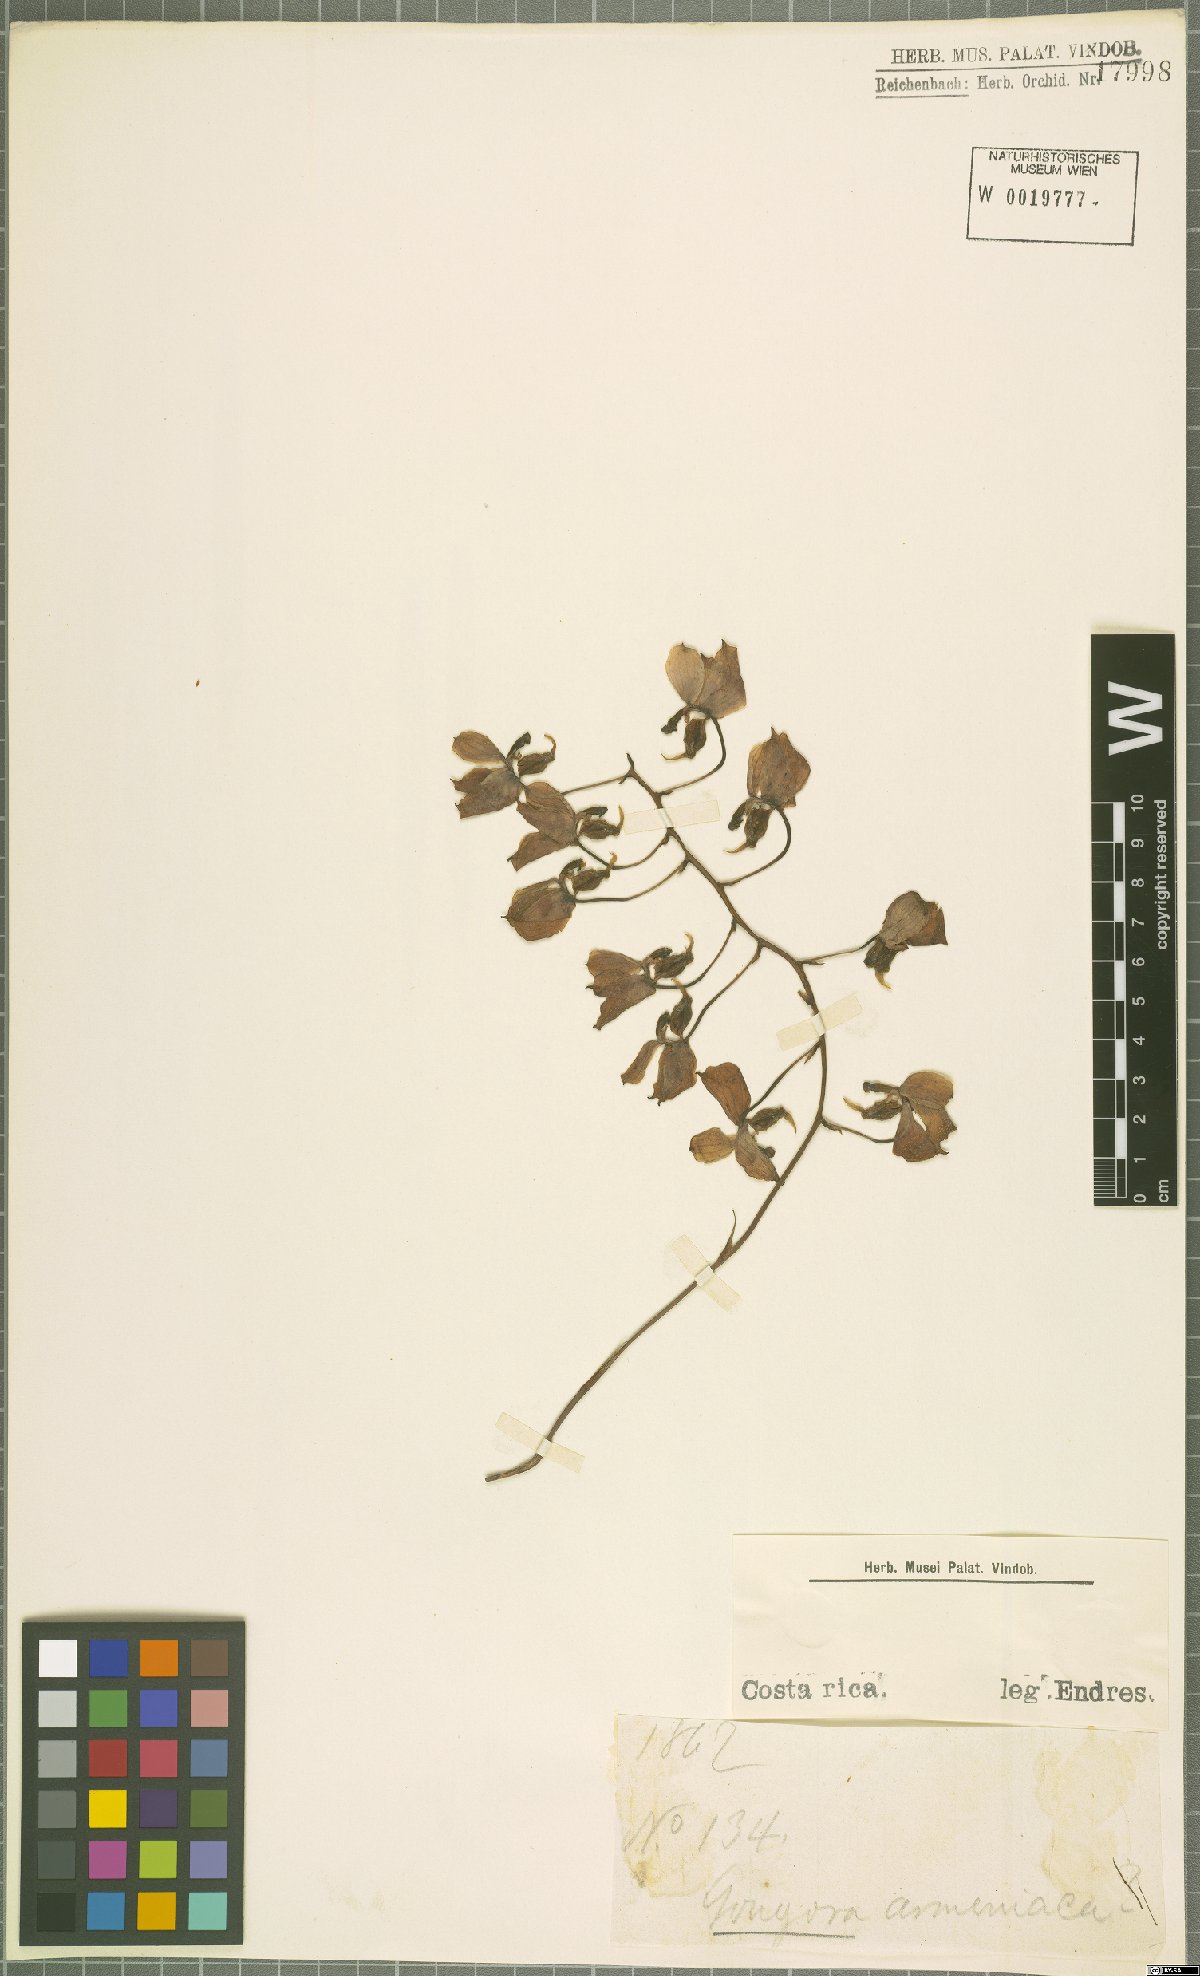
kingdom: Plantae
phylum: Tracheophyta
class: Liliopsida
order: Asparagales
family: Orchidaceae
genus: Gongora
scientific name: Gongora armeniaca
